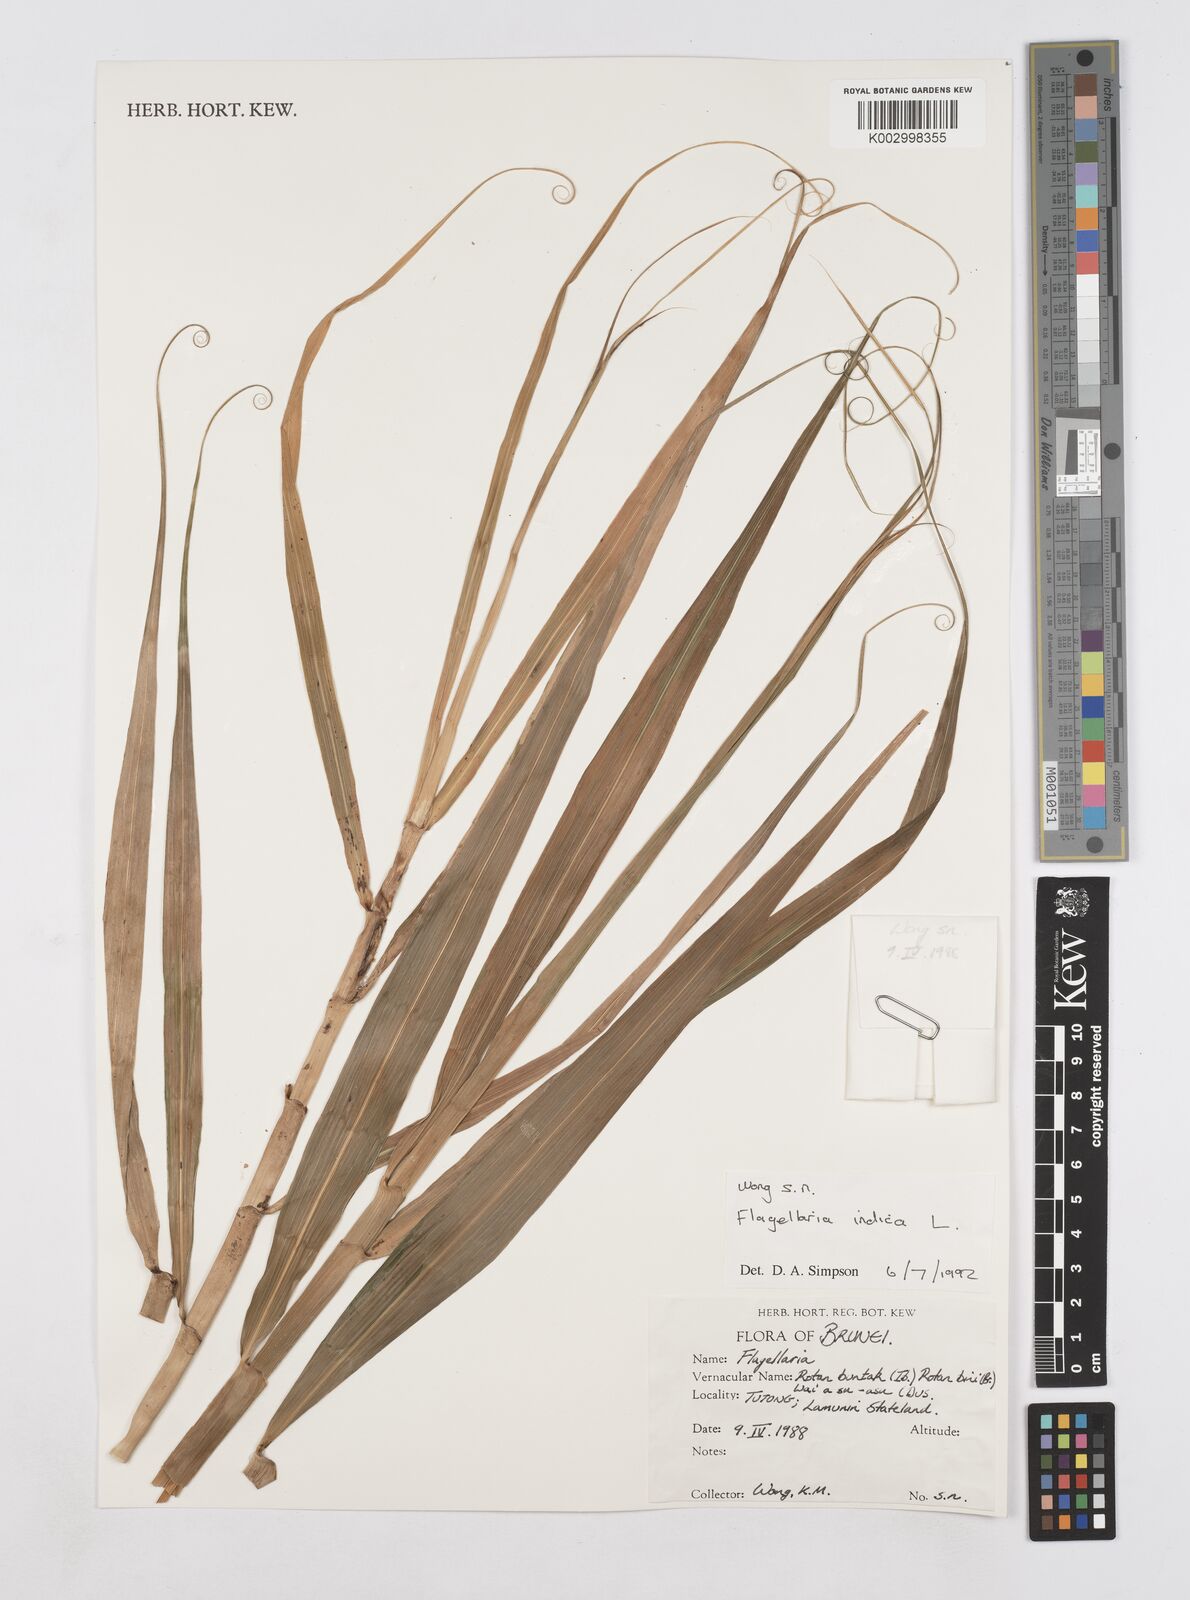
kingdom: Plantae
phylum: Tracheophyta
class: Liliopsida
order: Poales
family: Flagellariaceae
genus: Flagellaria
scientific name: Flagellaria indica
